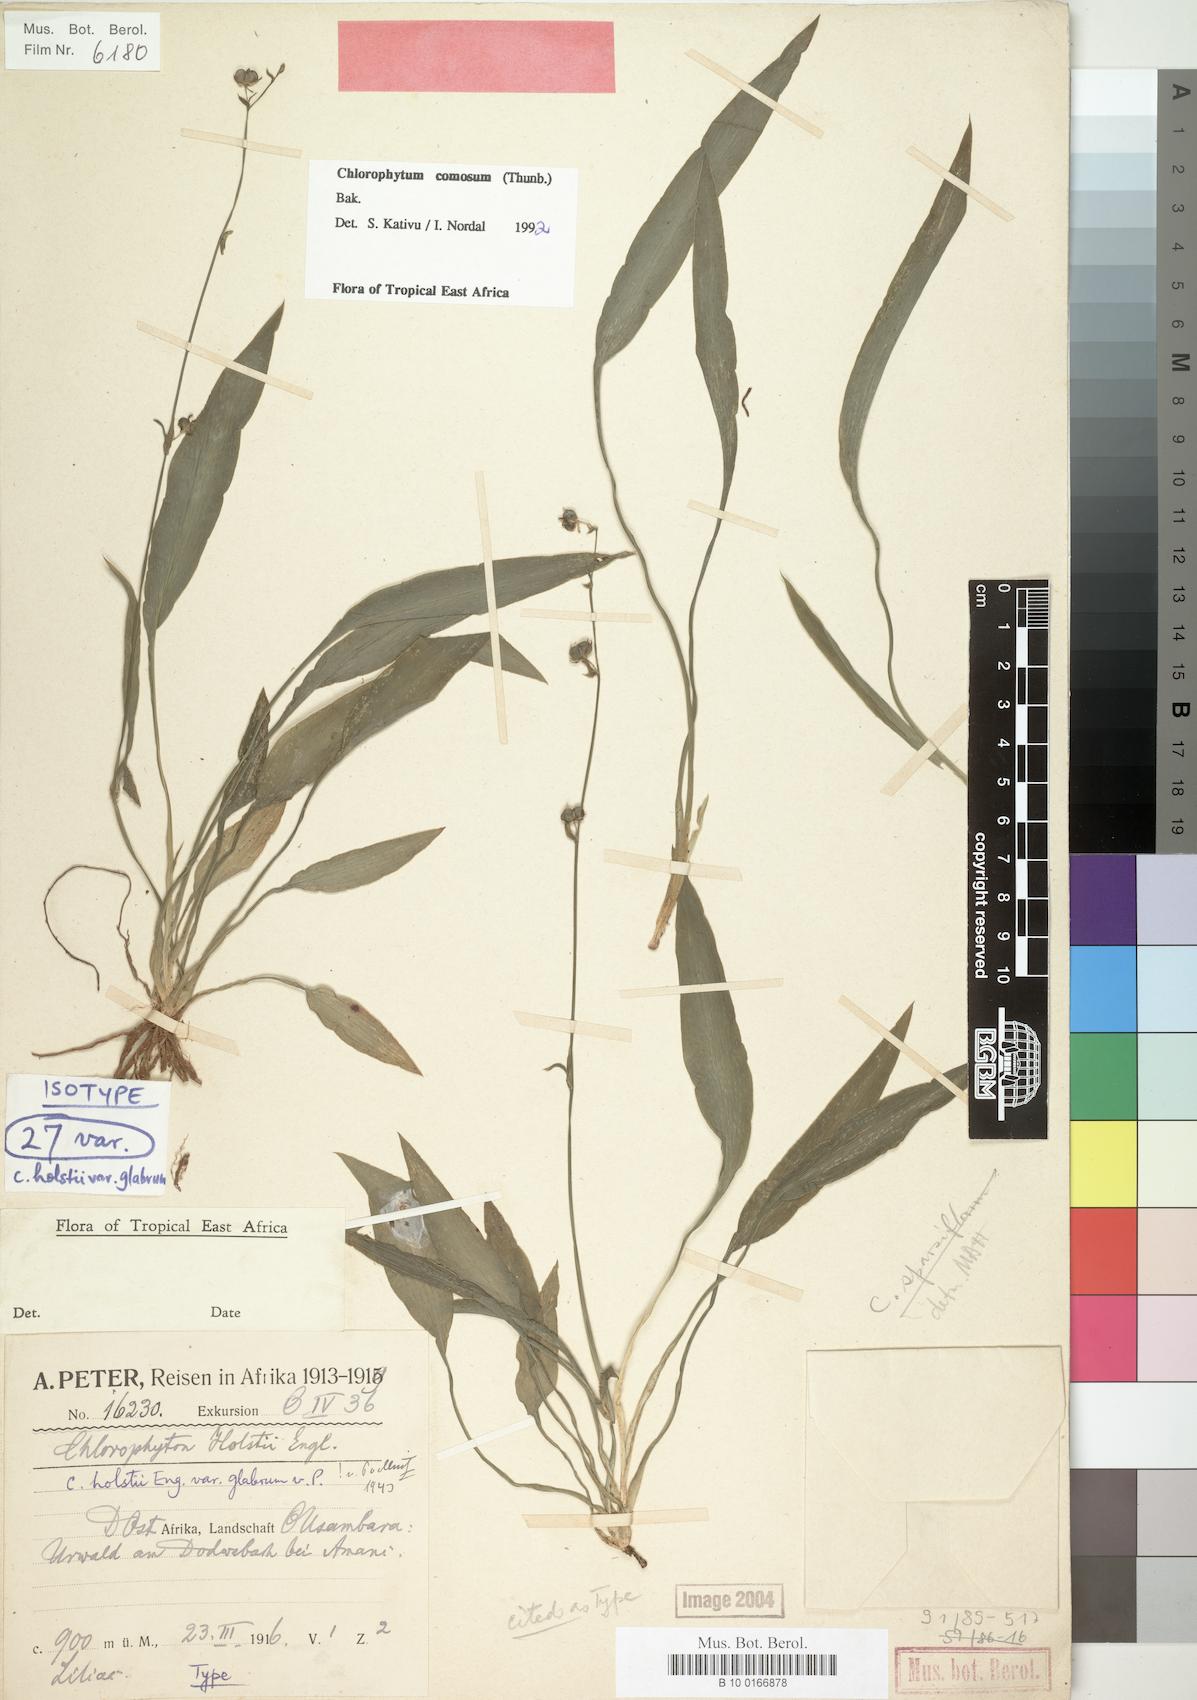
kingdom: Plantae
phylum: Tracheophyta
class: Liliopsida
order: Asparagales
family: Asparagaceae
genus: Chlorophytum
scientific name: Chlorophytum comosum
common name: Spider plant
